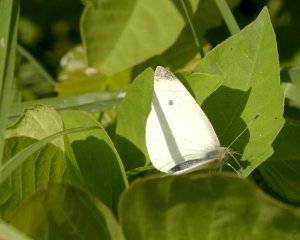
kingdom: Animalia
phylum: Arthropoda
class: Insecta
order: Lepidoptera
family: Pieridae
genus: Pieris
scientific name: Pieris rapae
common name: Cabbage White
